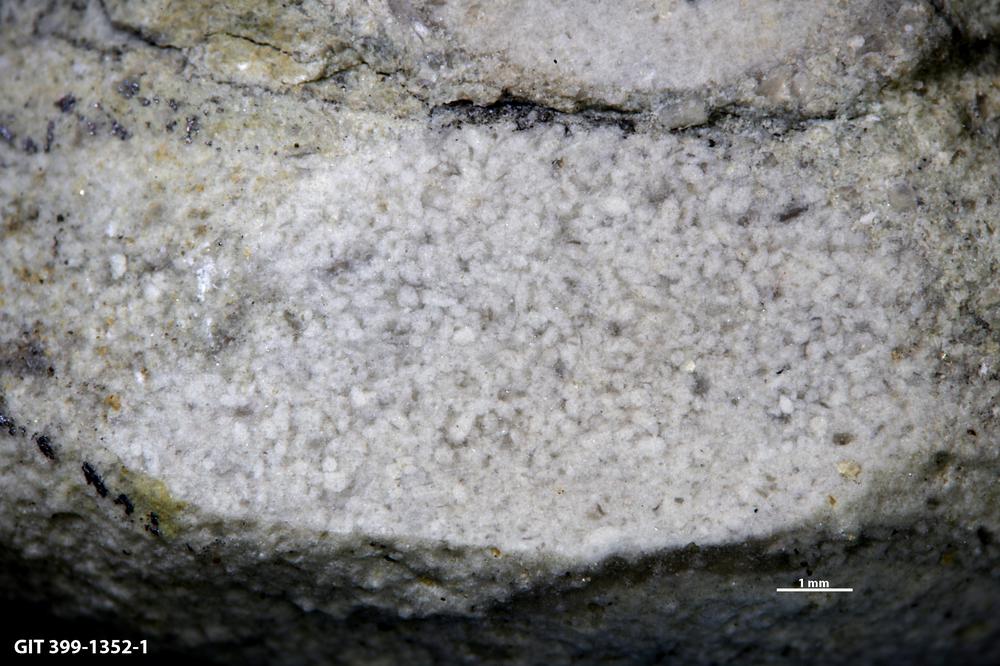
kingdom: Animalia
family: Coprulidae
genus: Coprulus
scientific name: Coprulus
